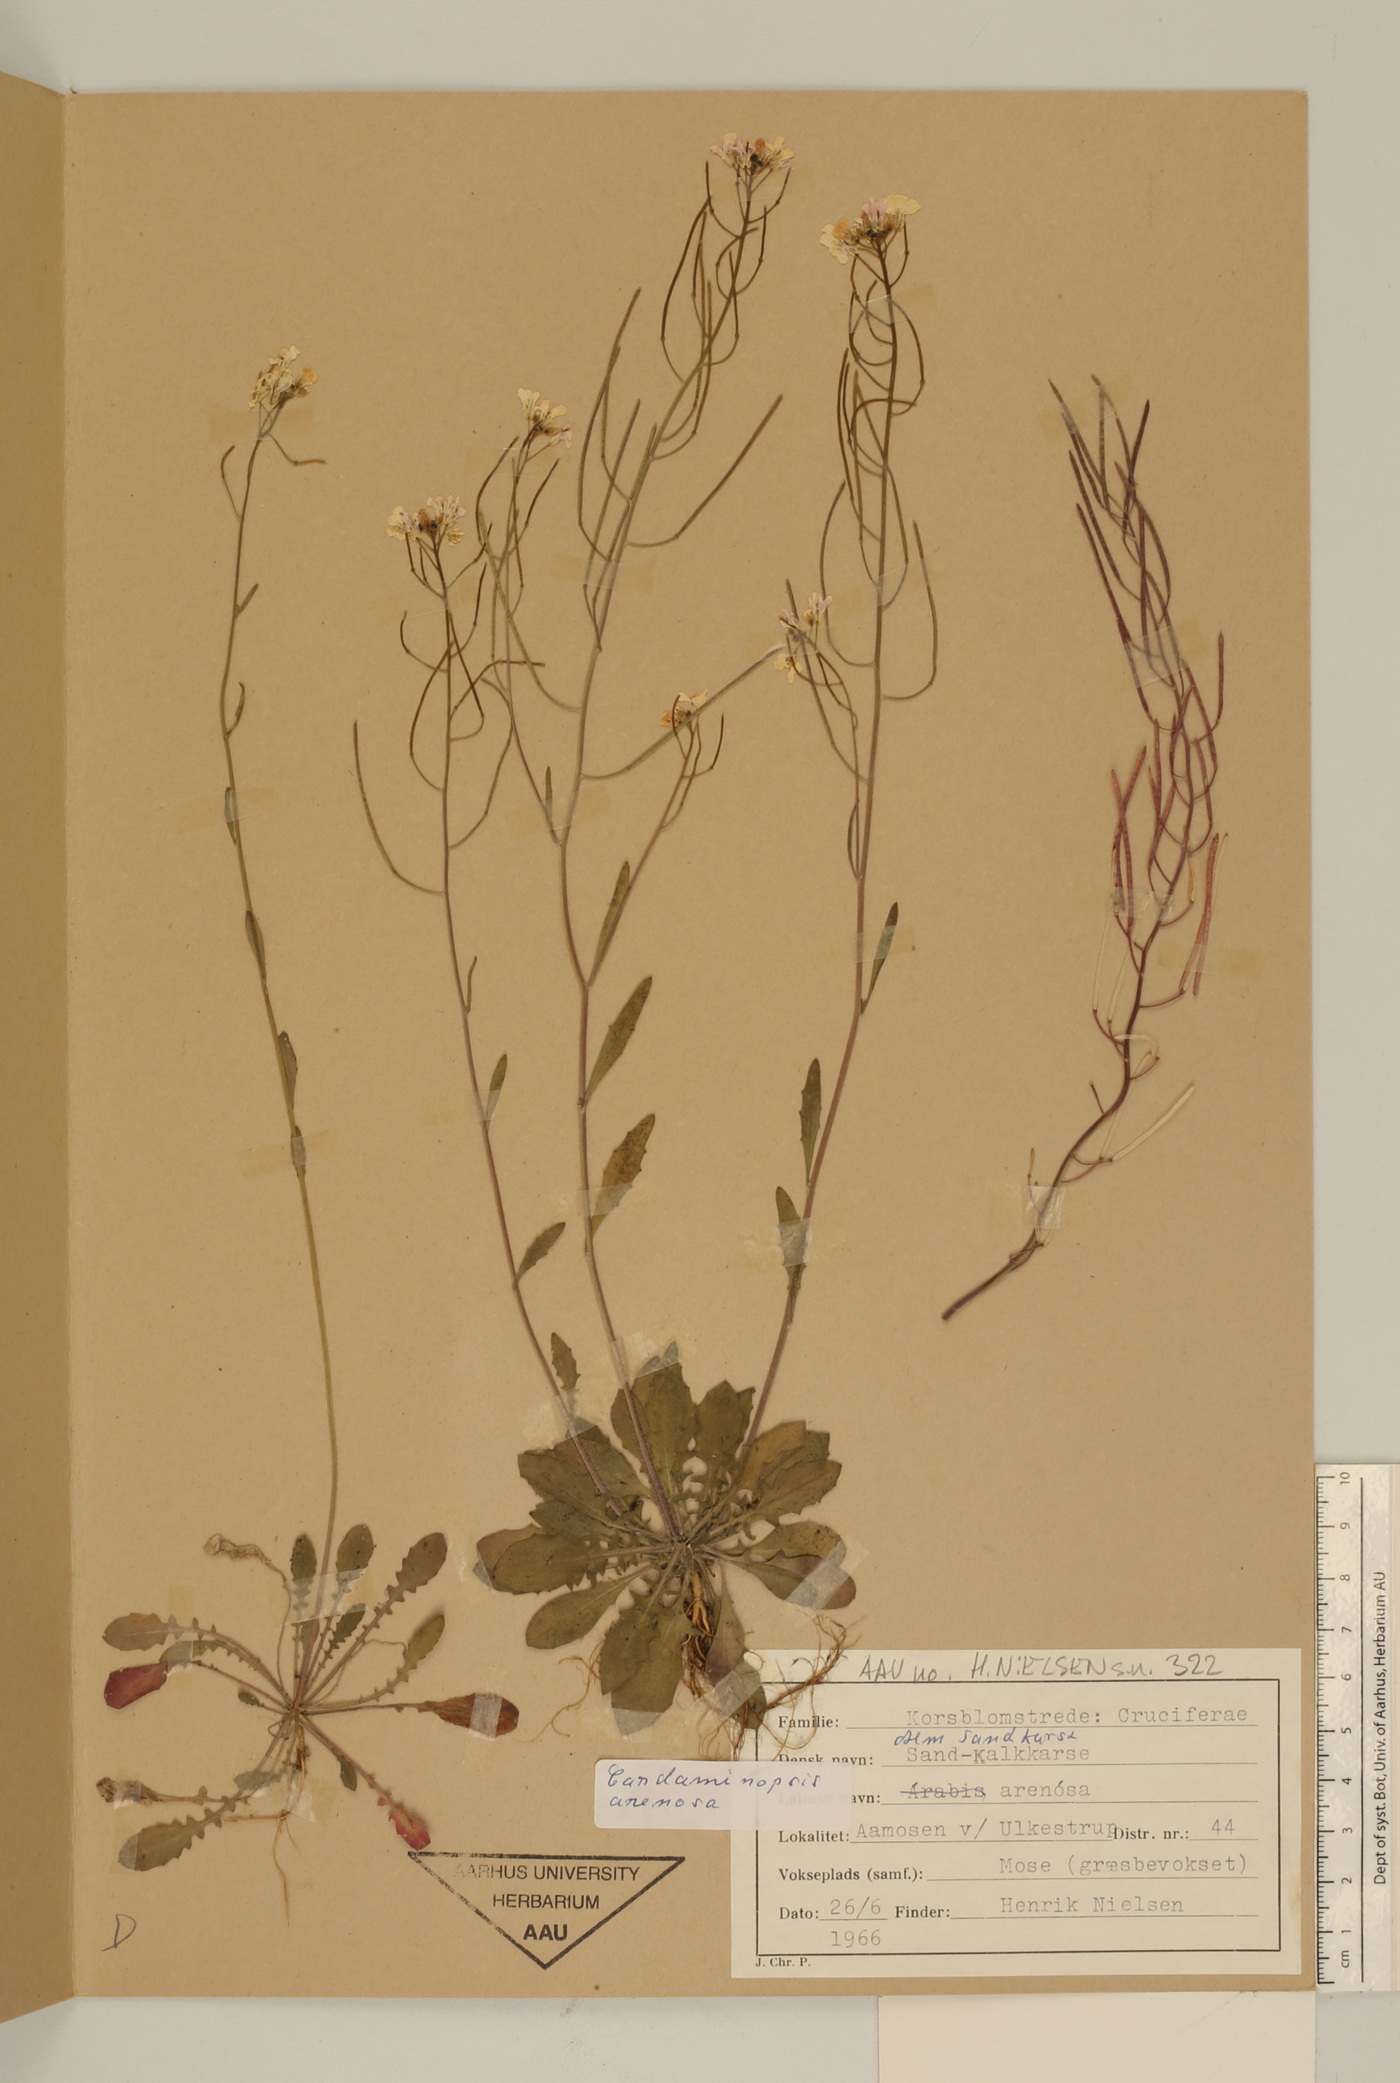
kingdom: Plantae
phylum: Tracheophyta
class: Magnoliopsida
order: Brassicales
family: Brassicaceae
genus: Arabidopsis
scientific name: Arabidopsis arenosa
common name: Sand rock-cress
